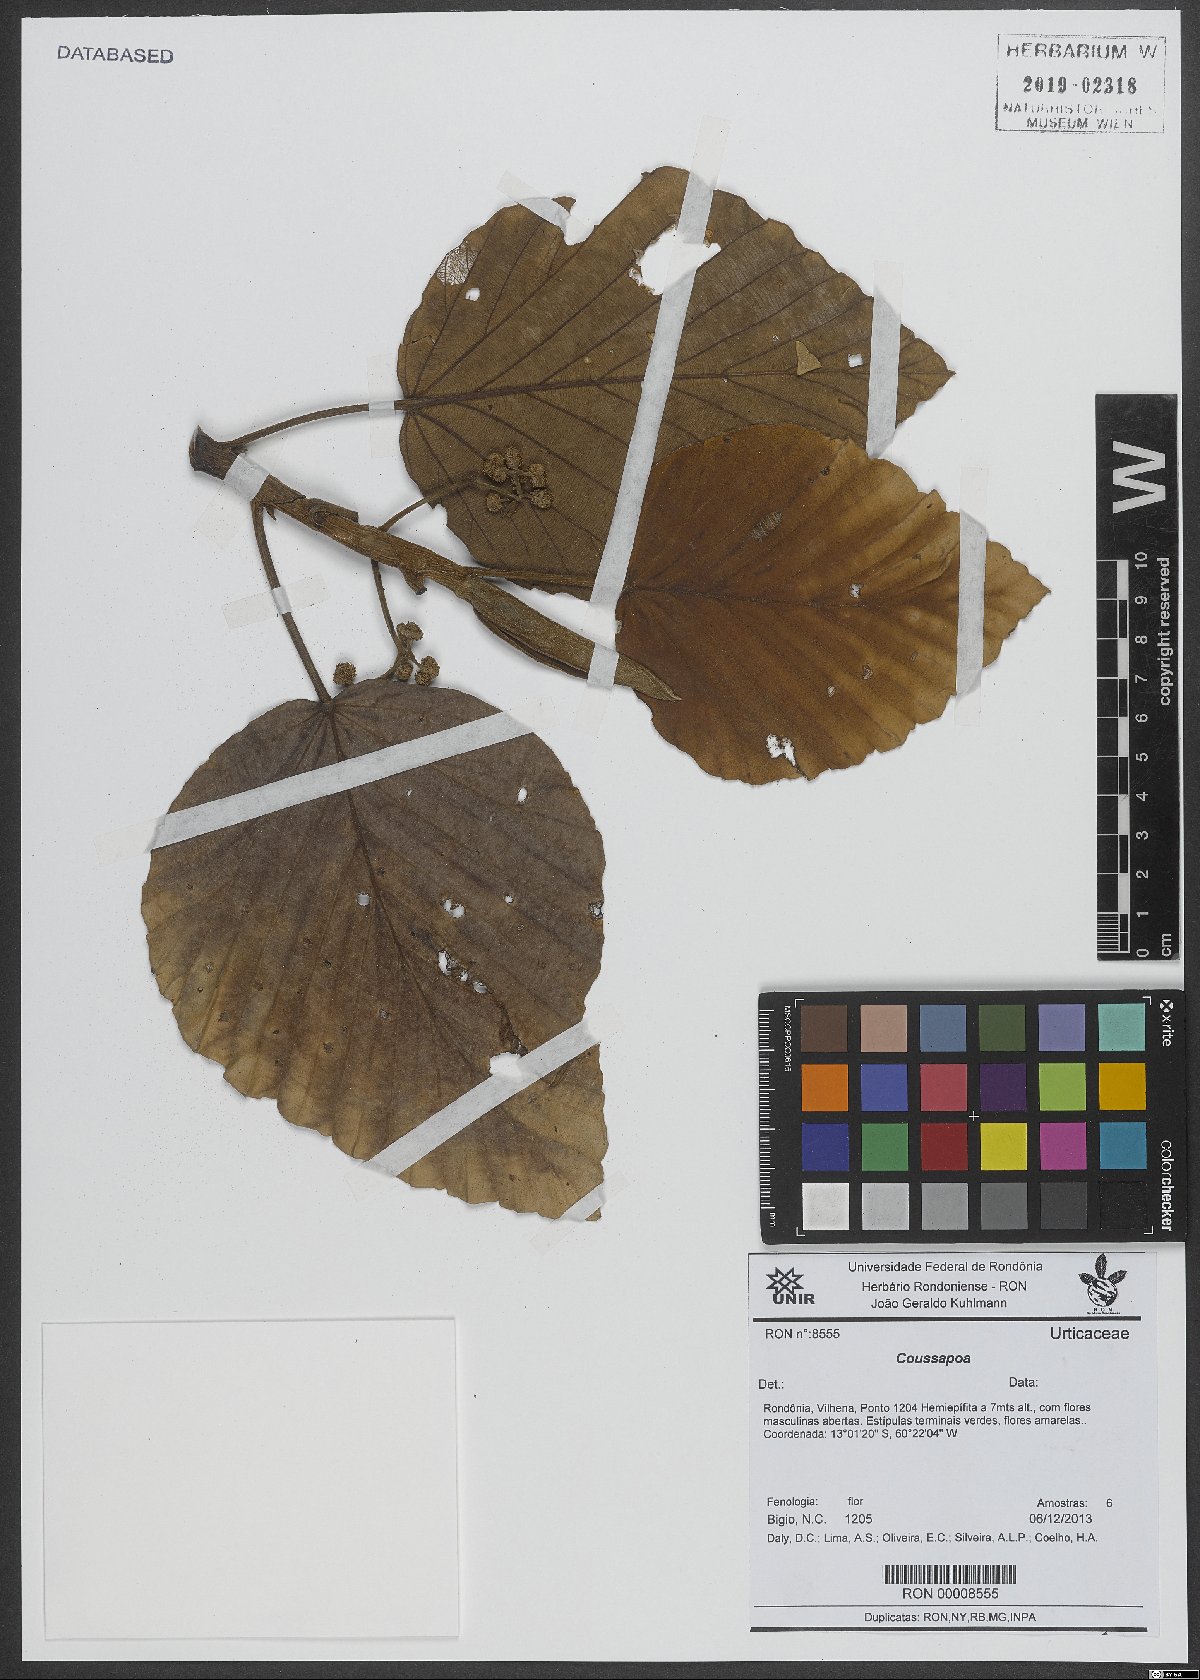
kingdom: Plantae
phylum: Tracheophyta
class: Magnoliopsida
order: Rosales
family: Urticaceae
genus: Coussapoa
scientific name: Coussapoa
